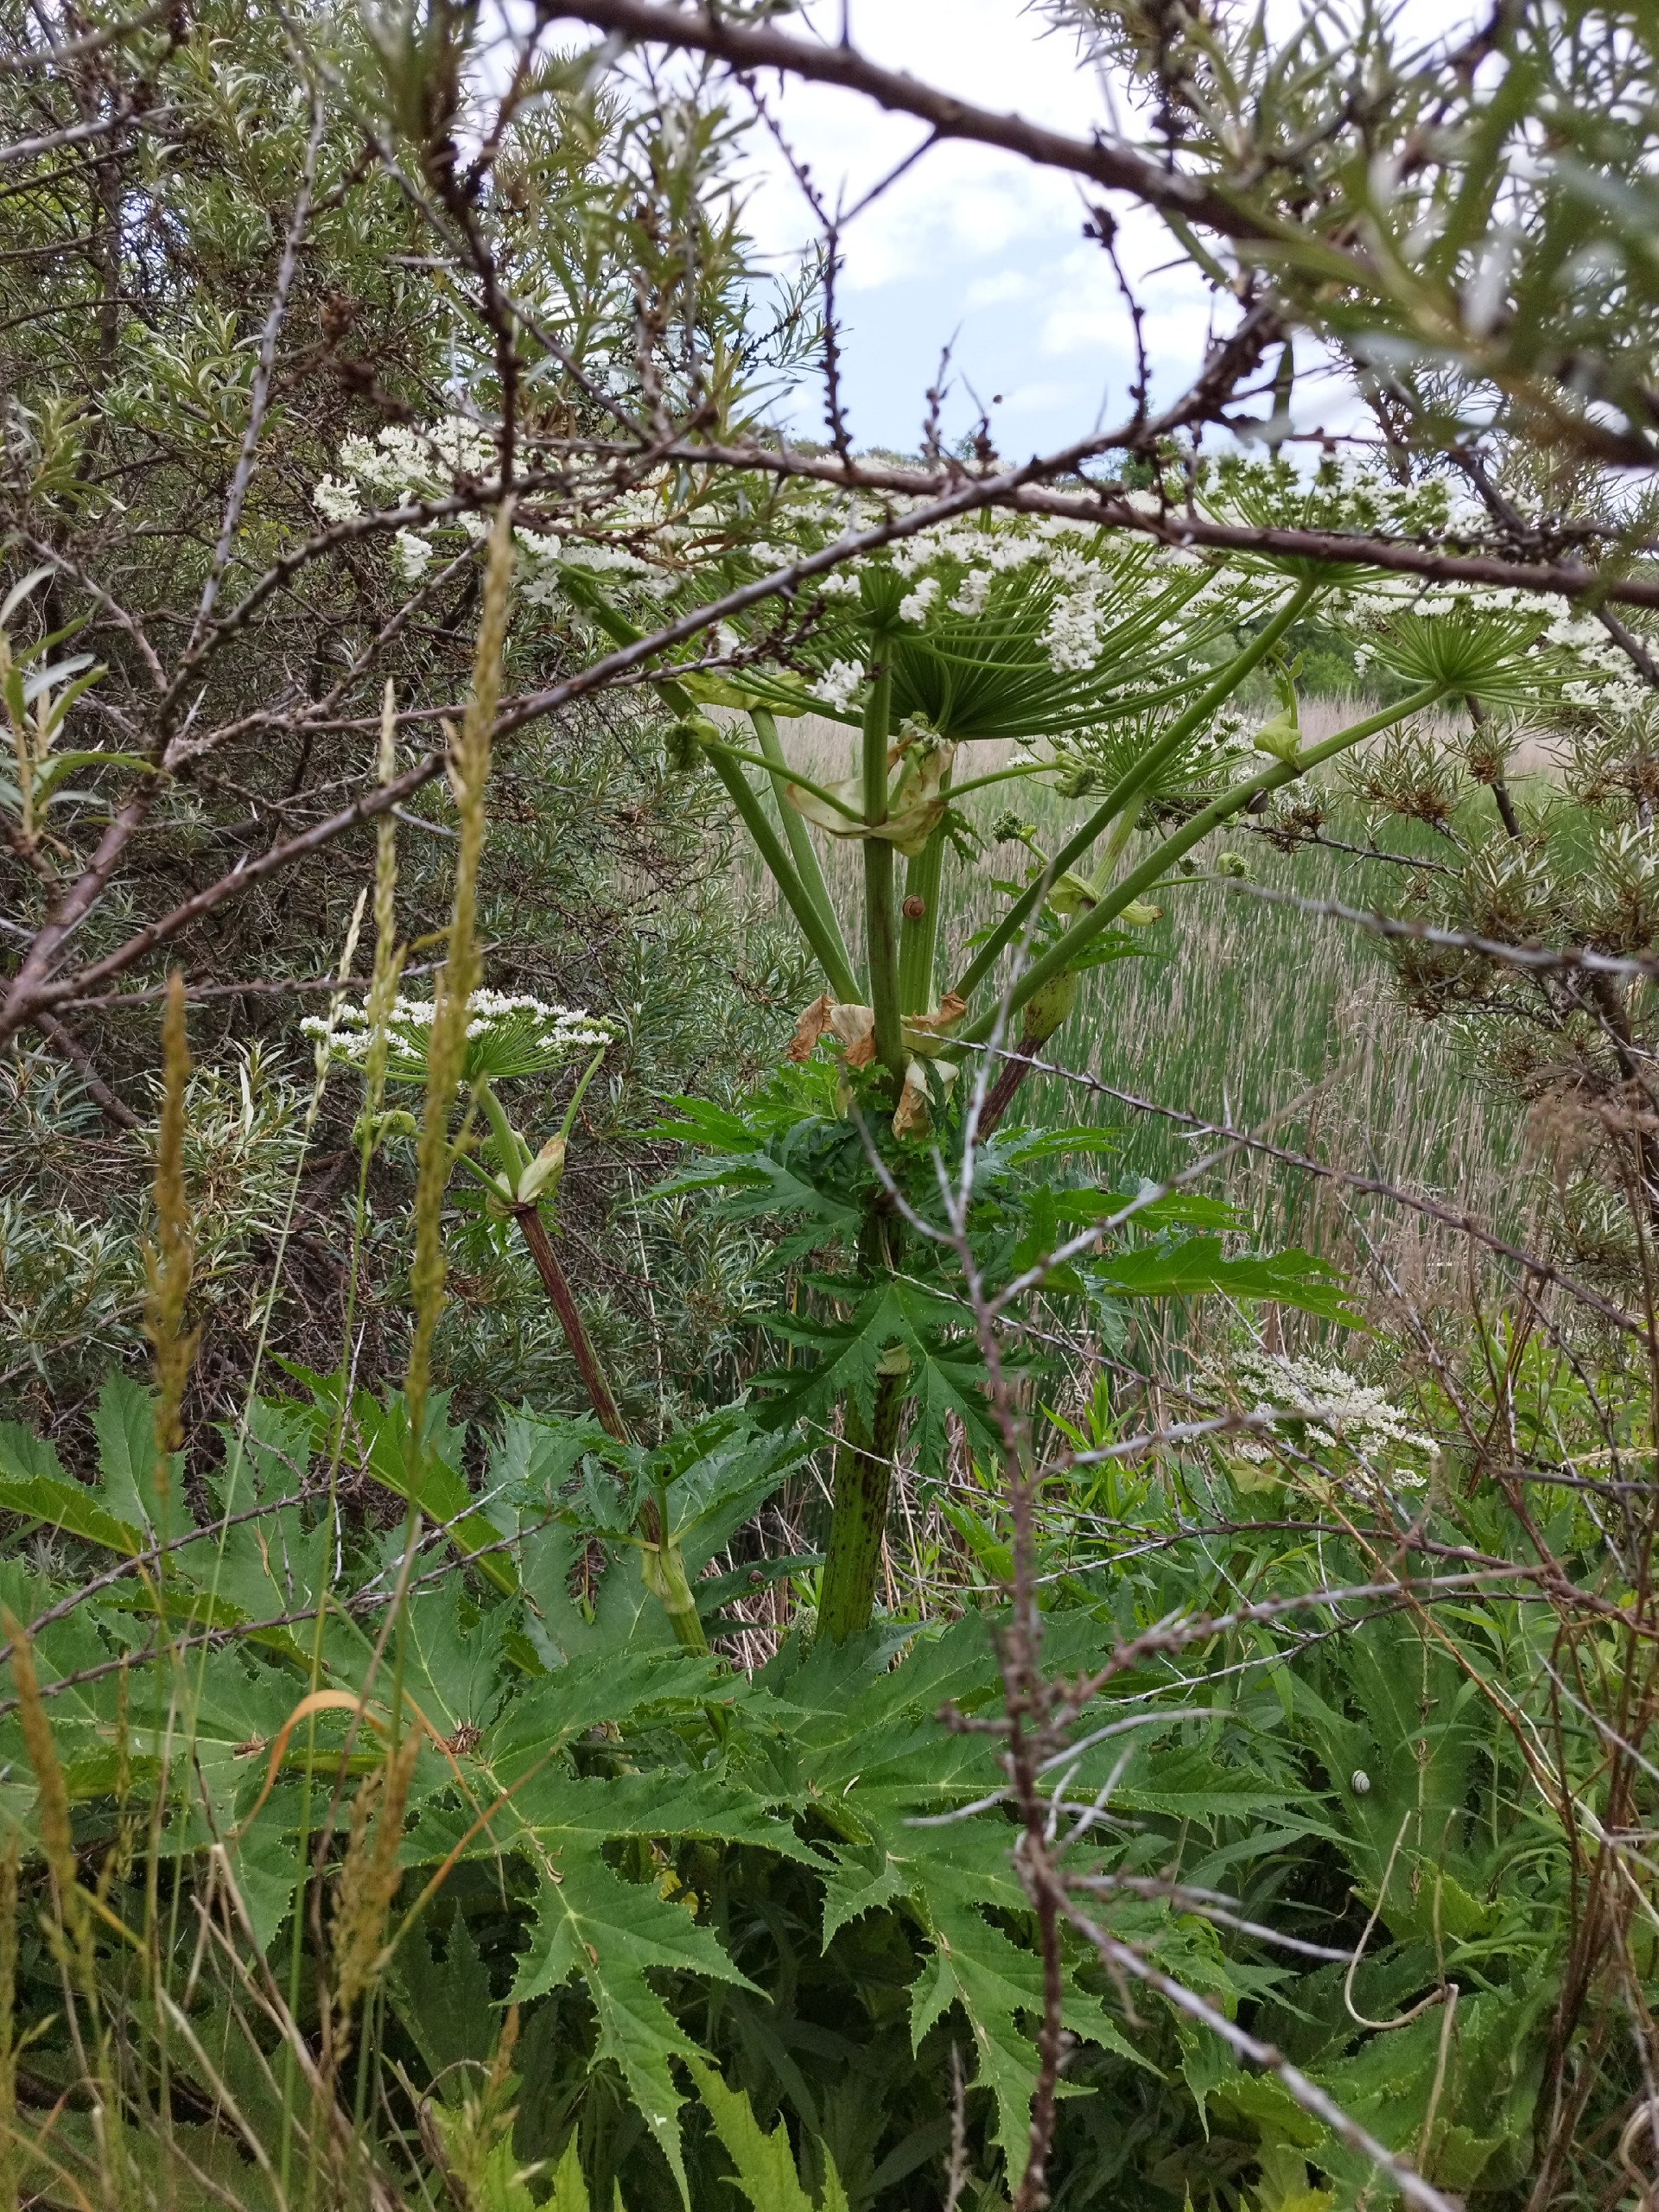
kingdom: Plantae
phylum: Tracheophyta
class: Magnoliopsida
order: Apiales
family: Apiaceae
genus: Heracleum
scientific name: Heracleum mantegazzianum
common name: Kæmpe-bjørneklo
